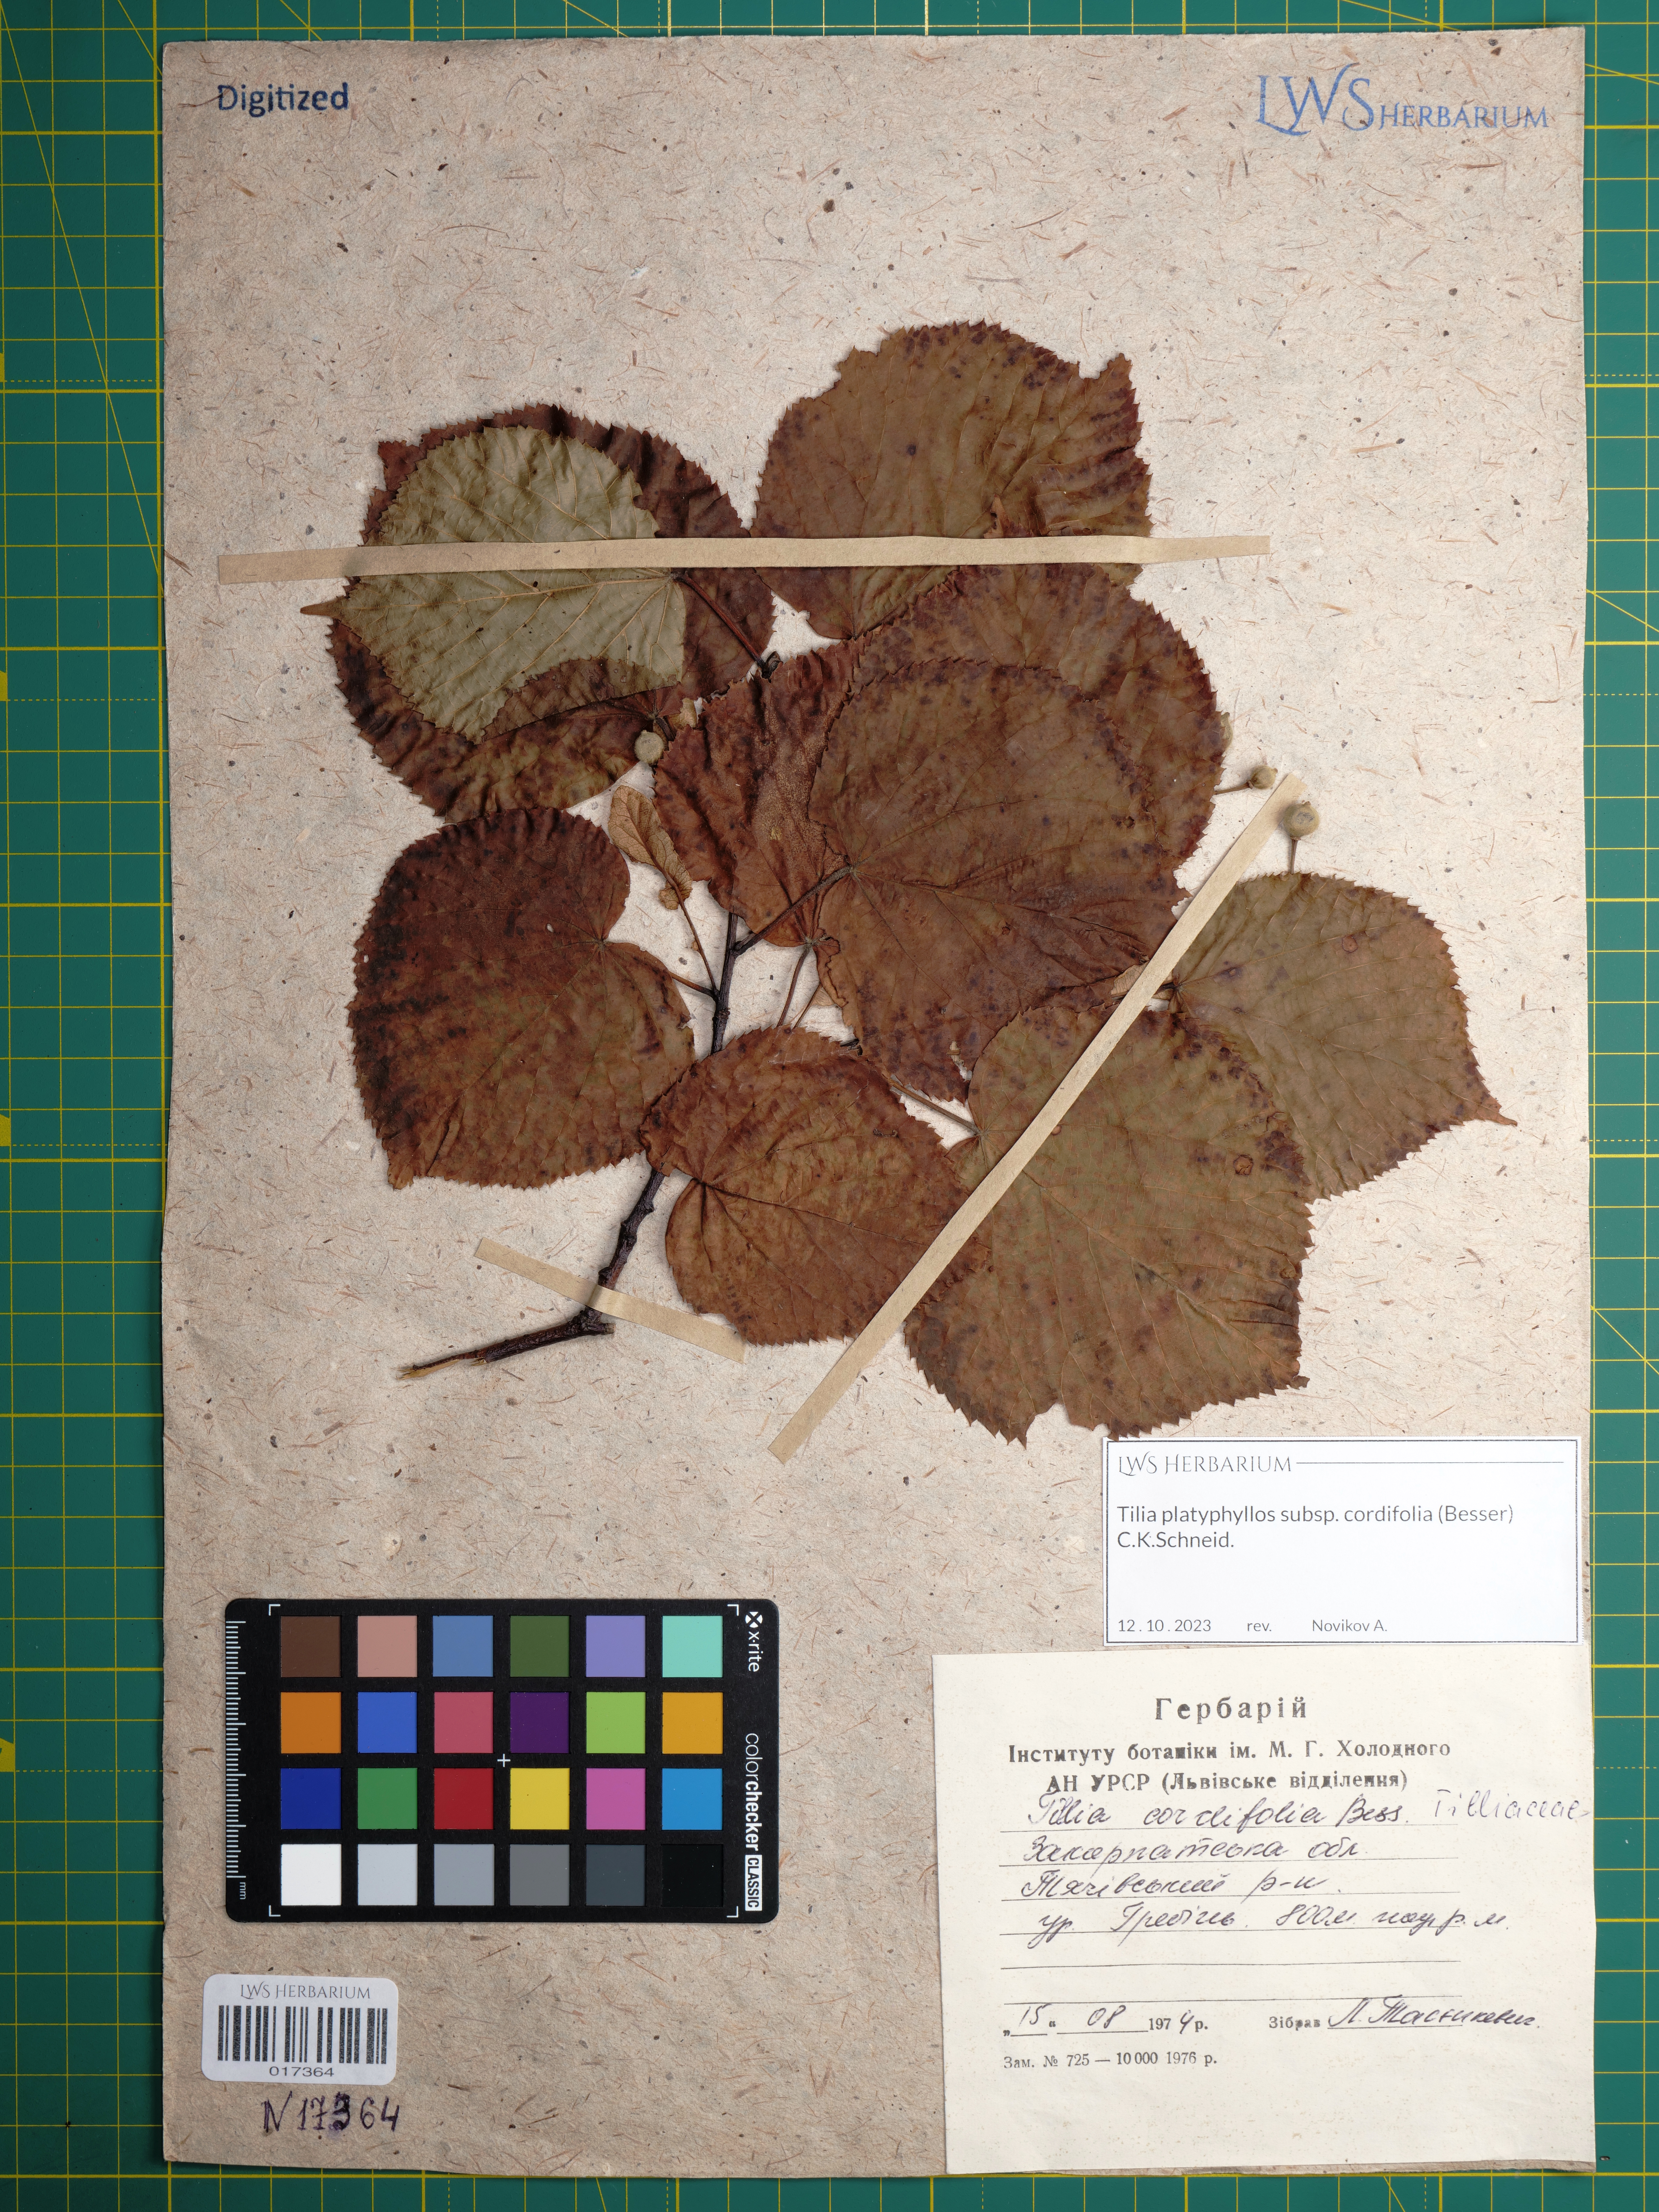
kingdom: Plantae
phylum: Tracheophyta
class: Magnoliopsida
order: Malvales
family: Malvaceae
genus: Tilia
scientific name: Tilia platyphyllos
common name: Large-leaved lime
